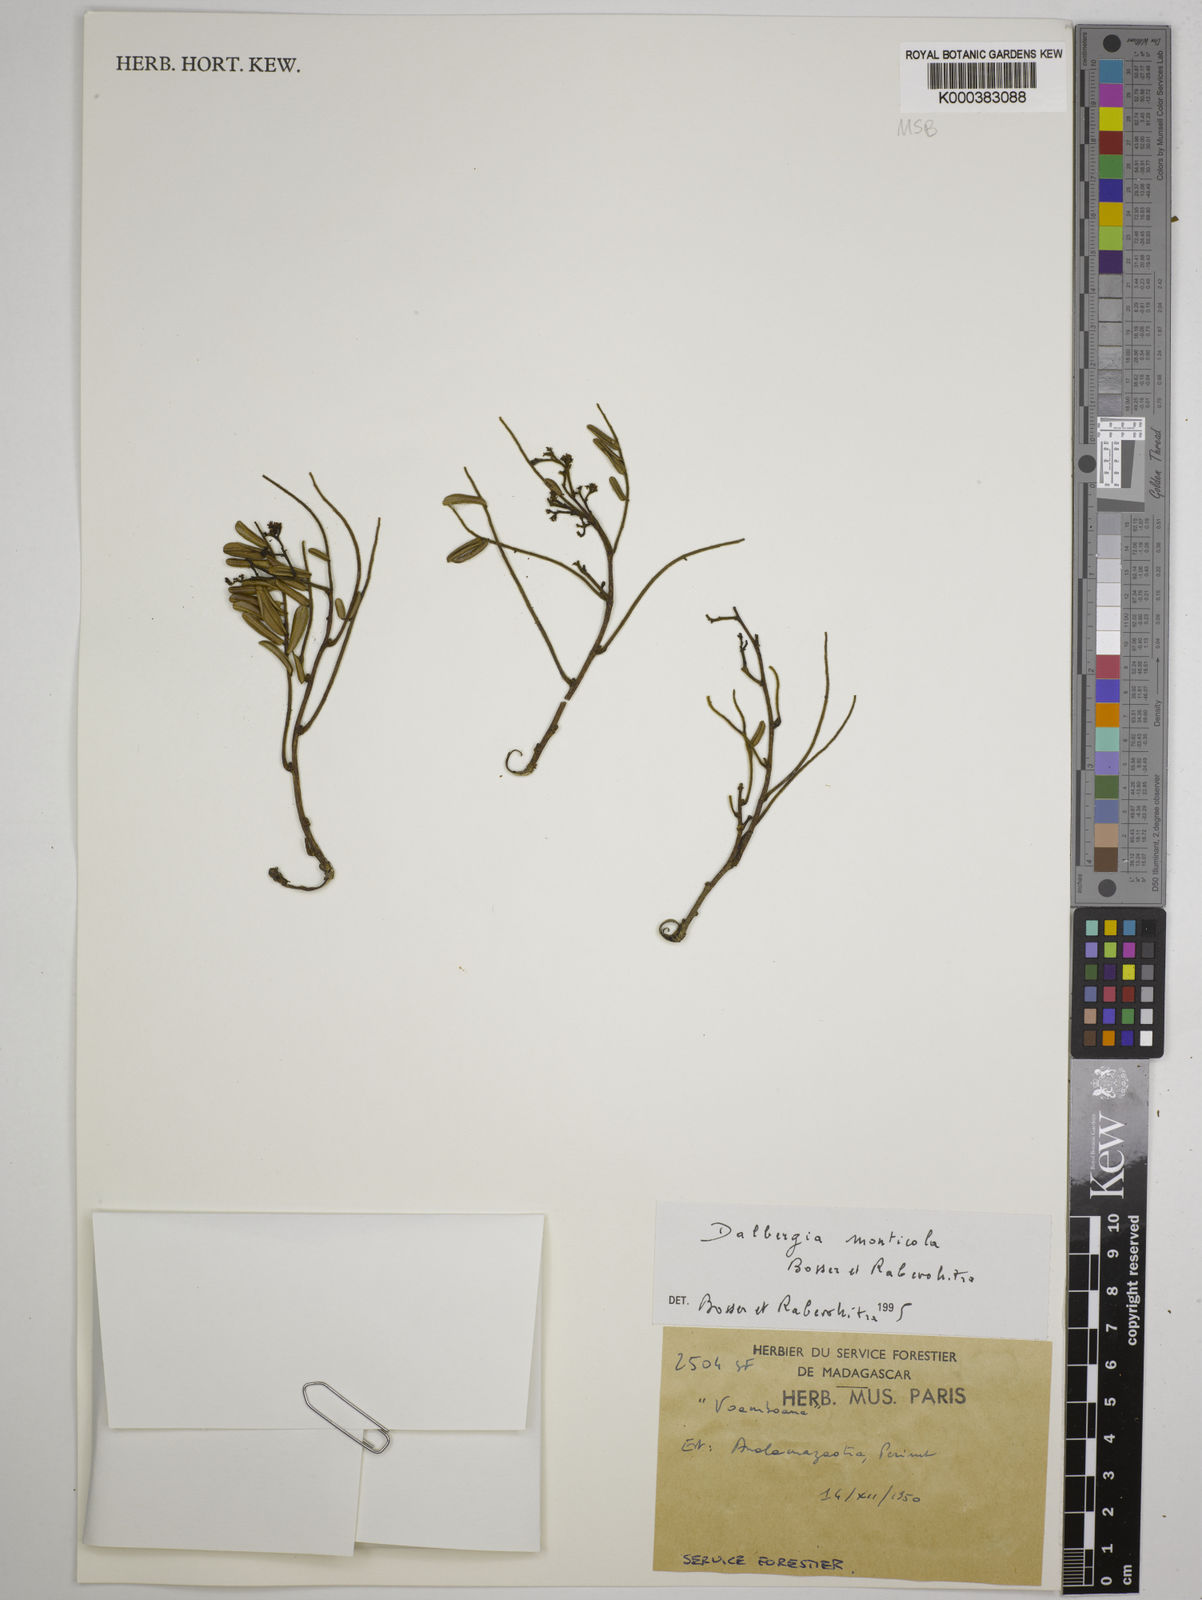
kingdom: Plantae
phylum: Tracheophyta
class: Magnoliopsida
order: Fabales
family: Fabaceae
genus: Dalbergia
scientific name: Dalbergia monticola
